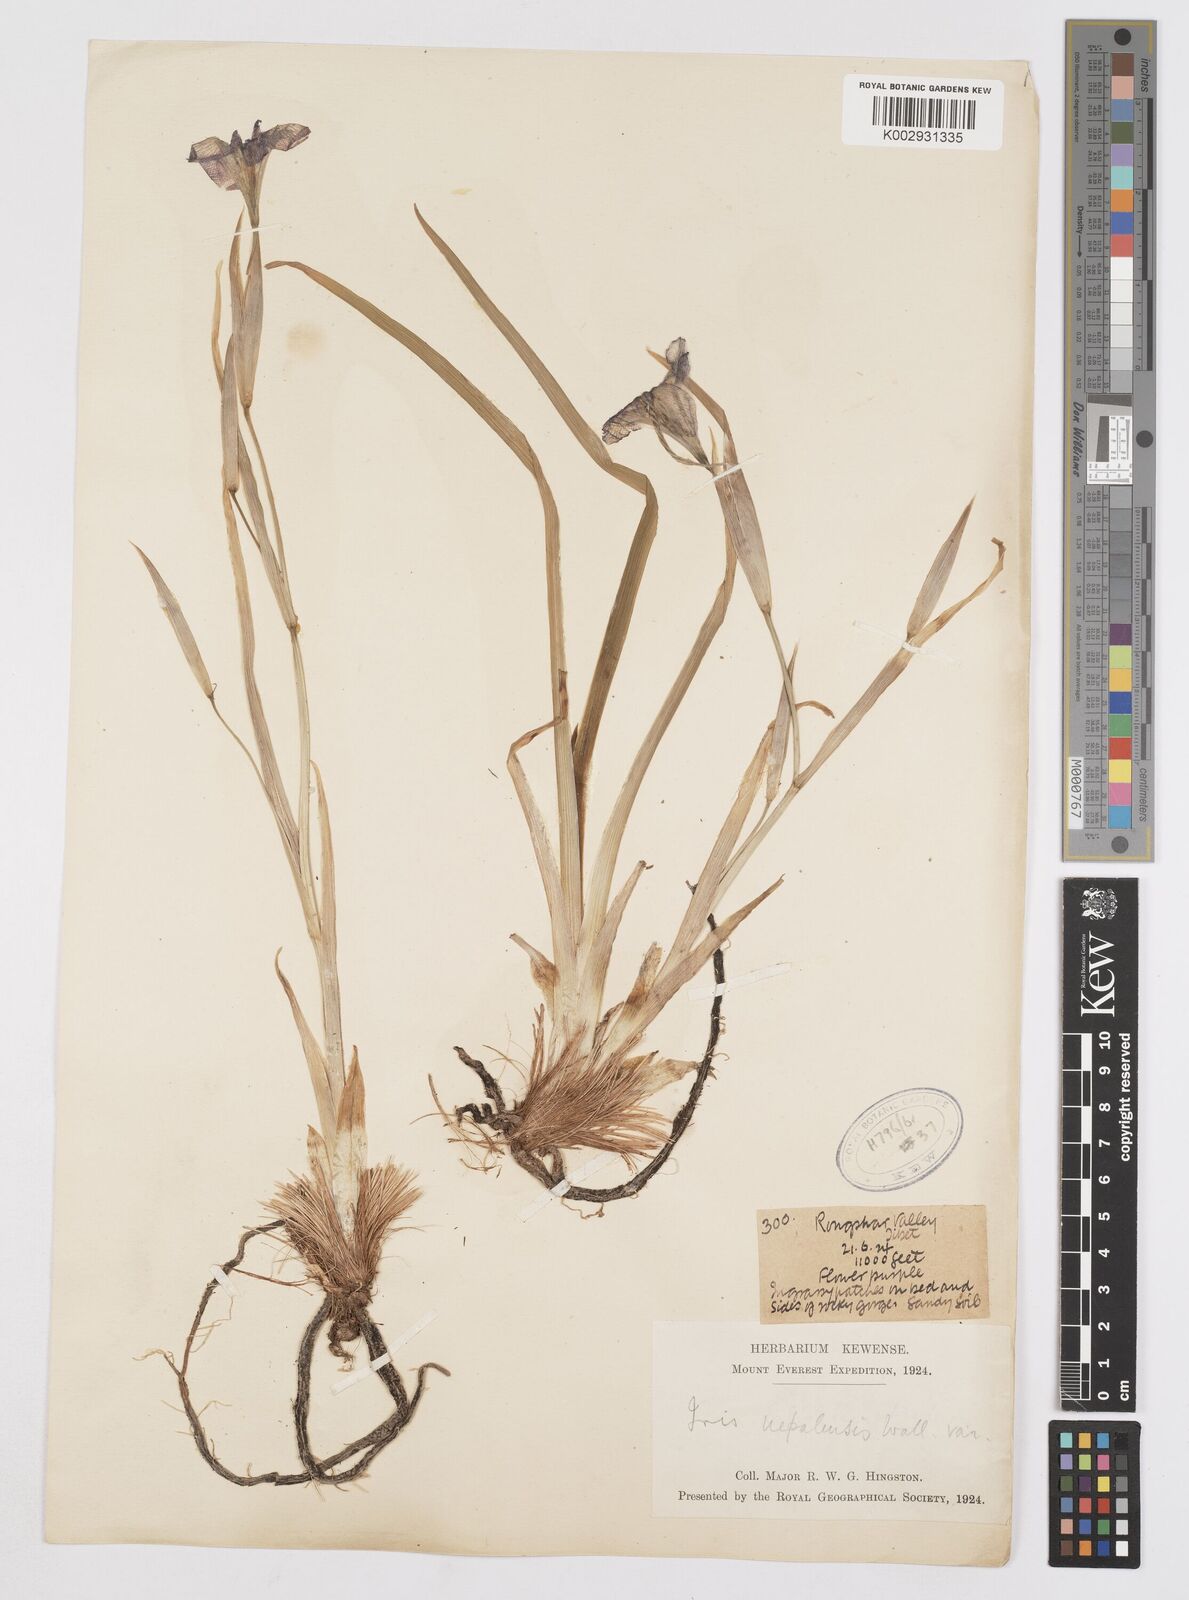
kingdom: Plantae
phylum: Tracheophyta
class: Liliopsida
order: Asparagales
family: Iridaceae
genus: Iris
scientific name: Iris decora
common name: Nepal iris
